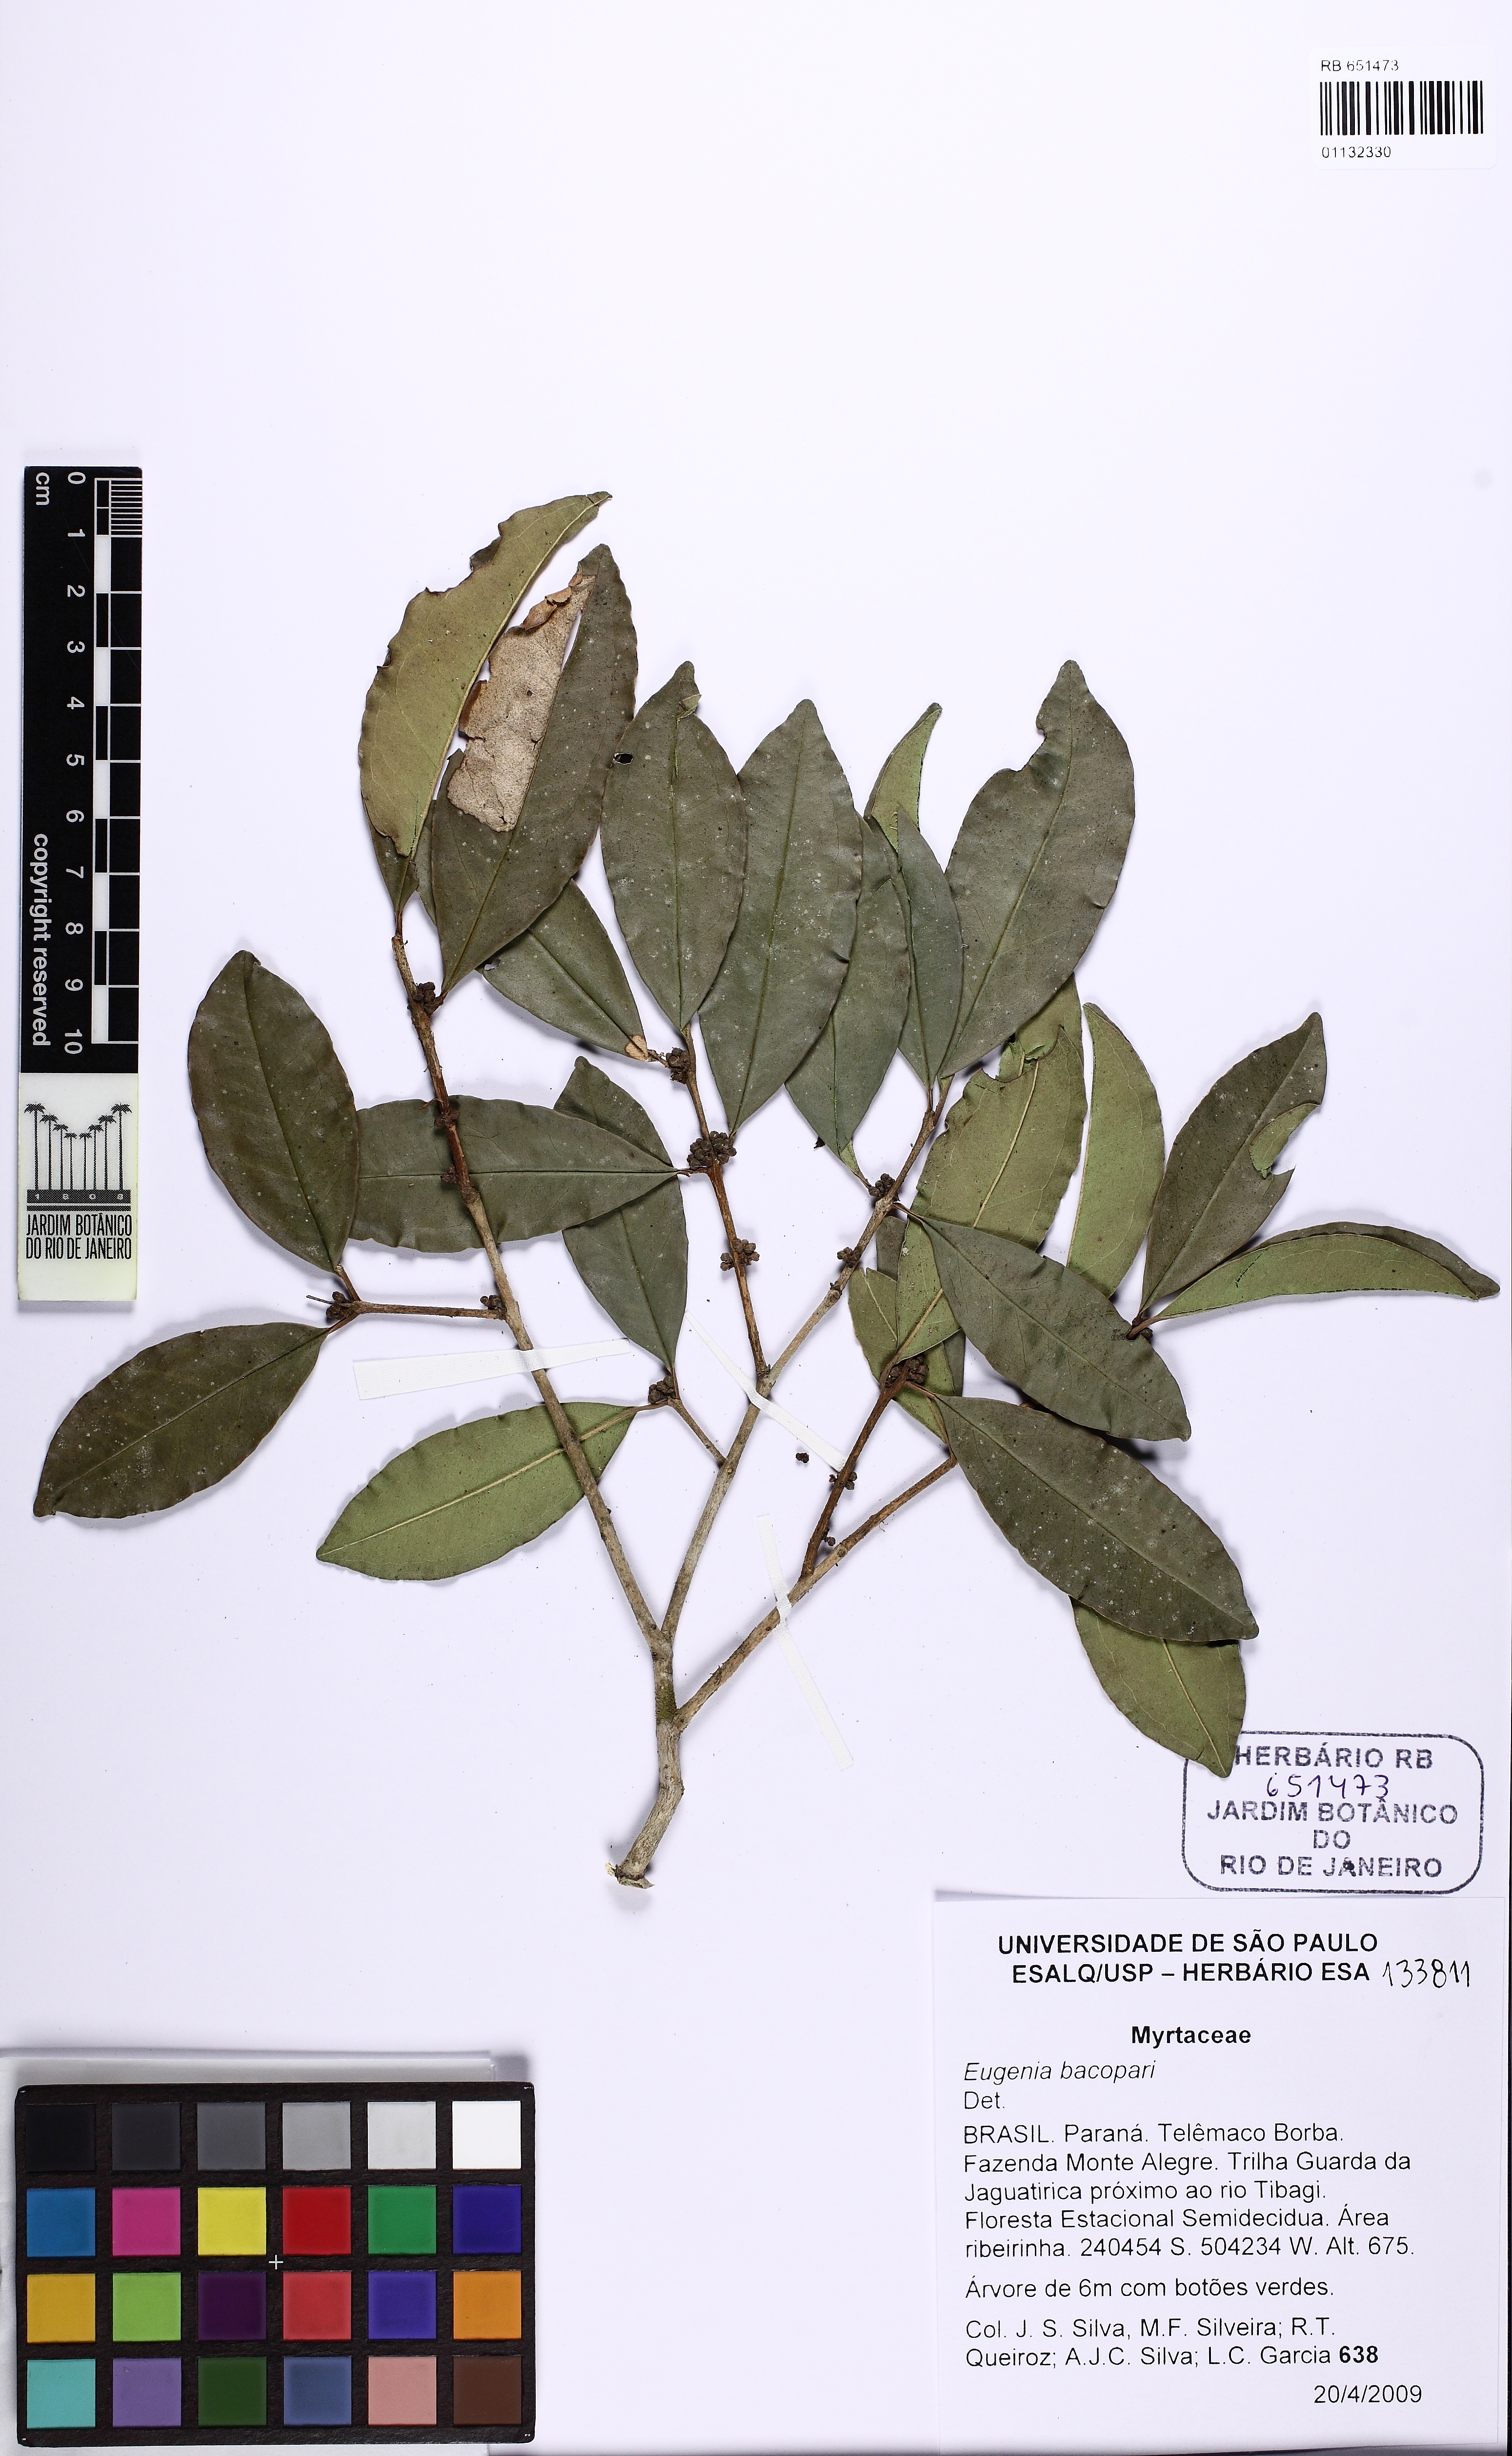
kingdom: Plantae
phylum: Tracheophyta
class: Magnoliopsida
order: Myrtales
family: Myrtaceae
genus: Eugenia
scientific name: Eugenia burkartiana
